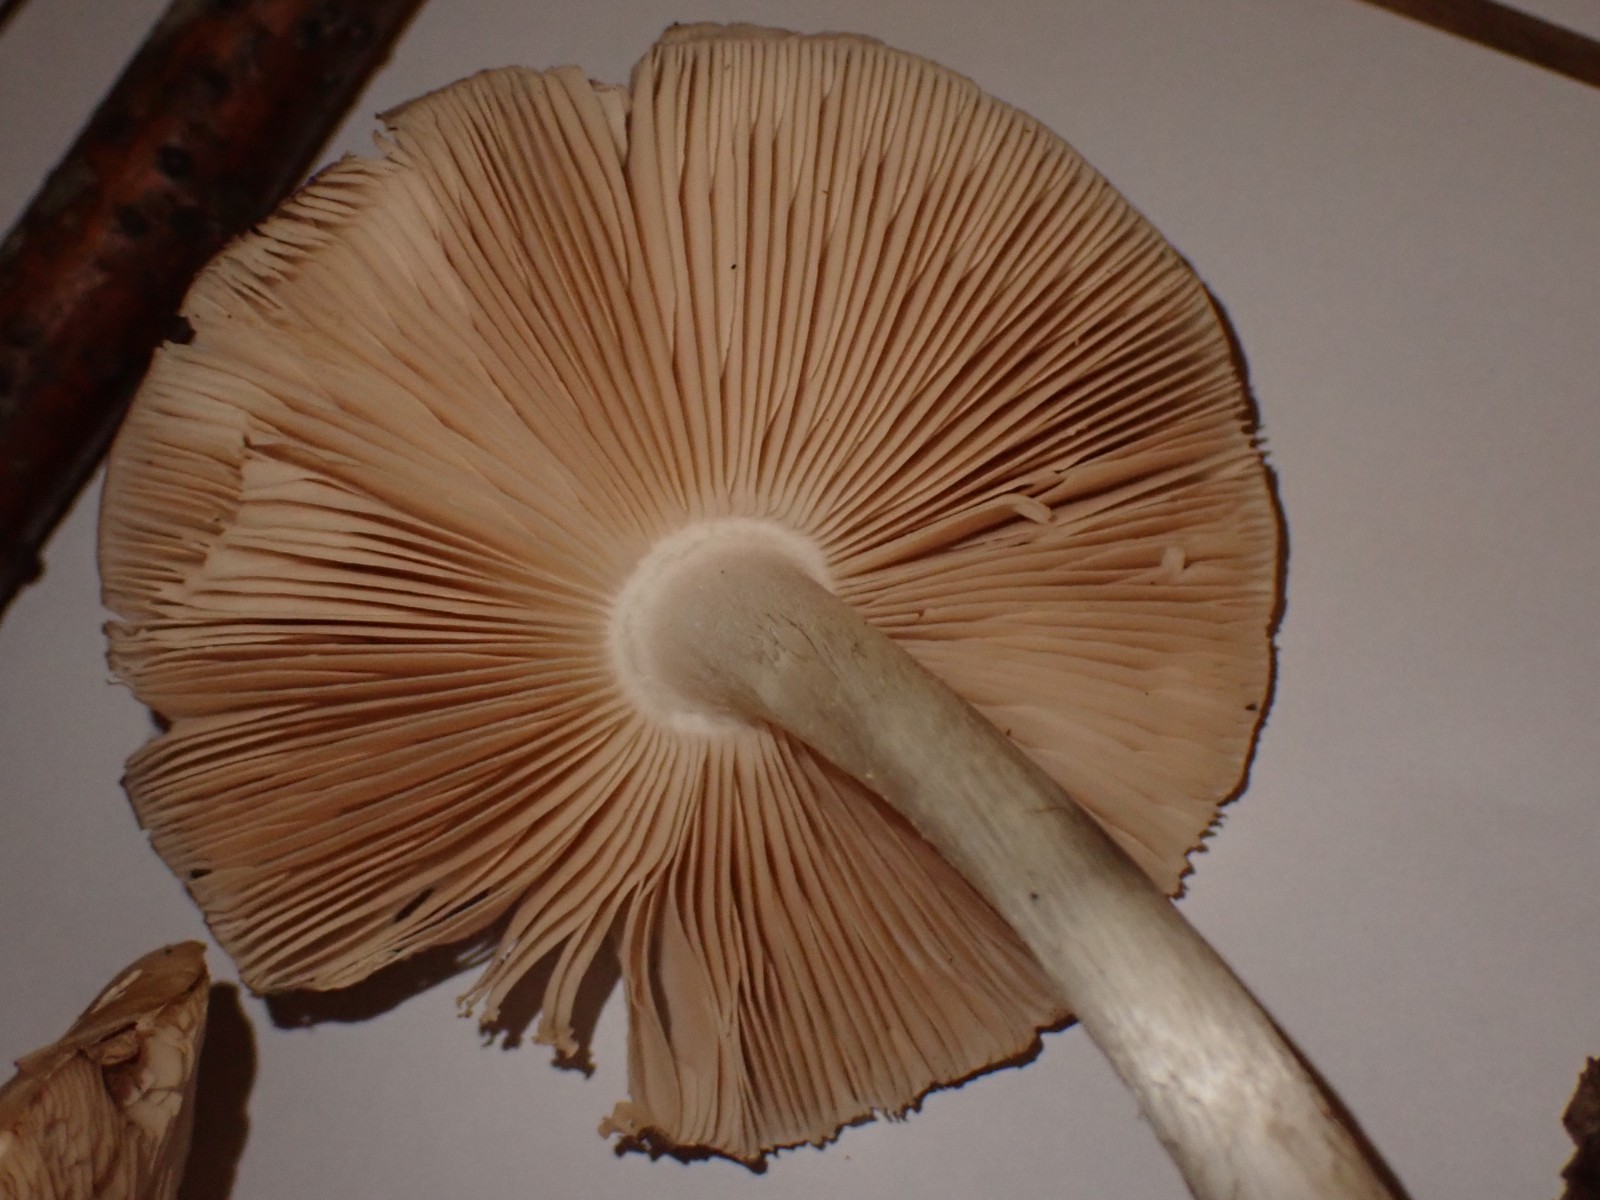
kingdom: Fungi
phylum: Basidiomycota
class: Agaricomycetes
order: Agaricales
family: Pluteaceae
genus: Pluteus
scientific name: Pluteus cervinus
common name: sodfarvet skærmhat
